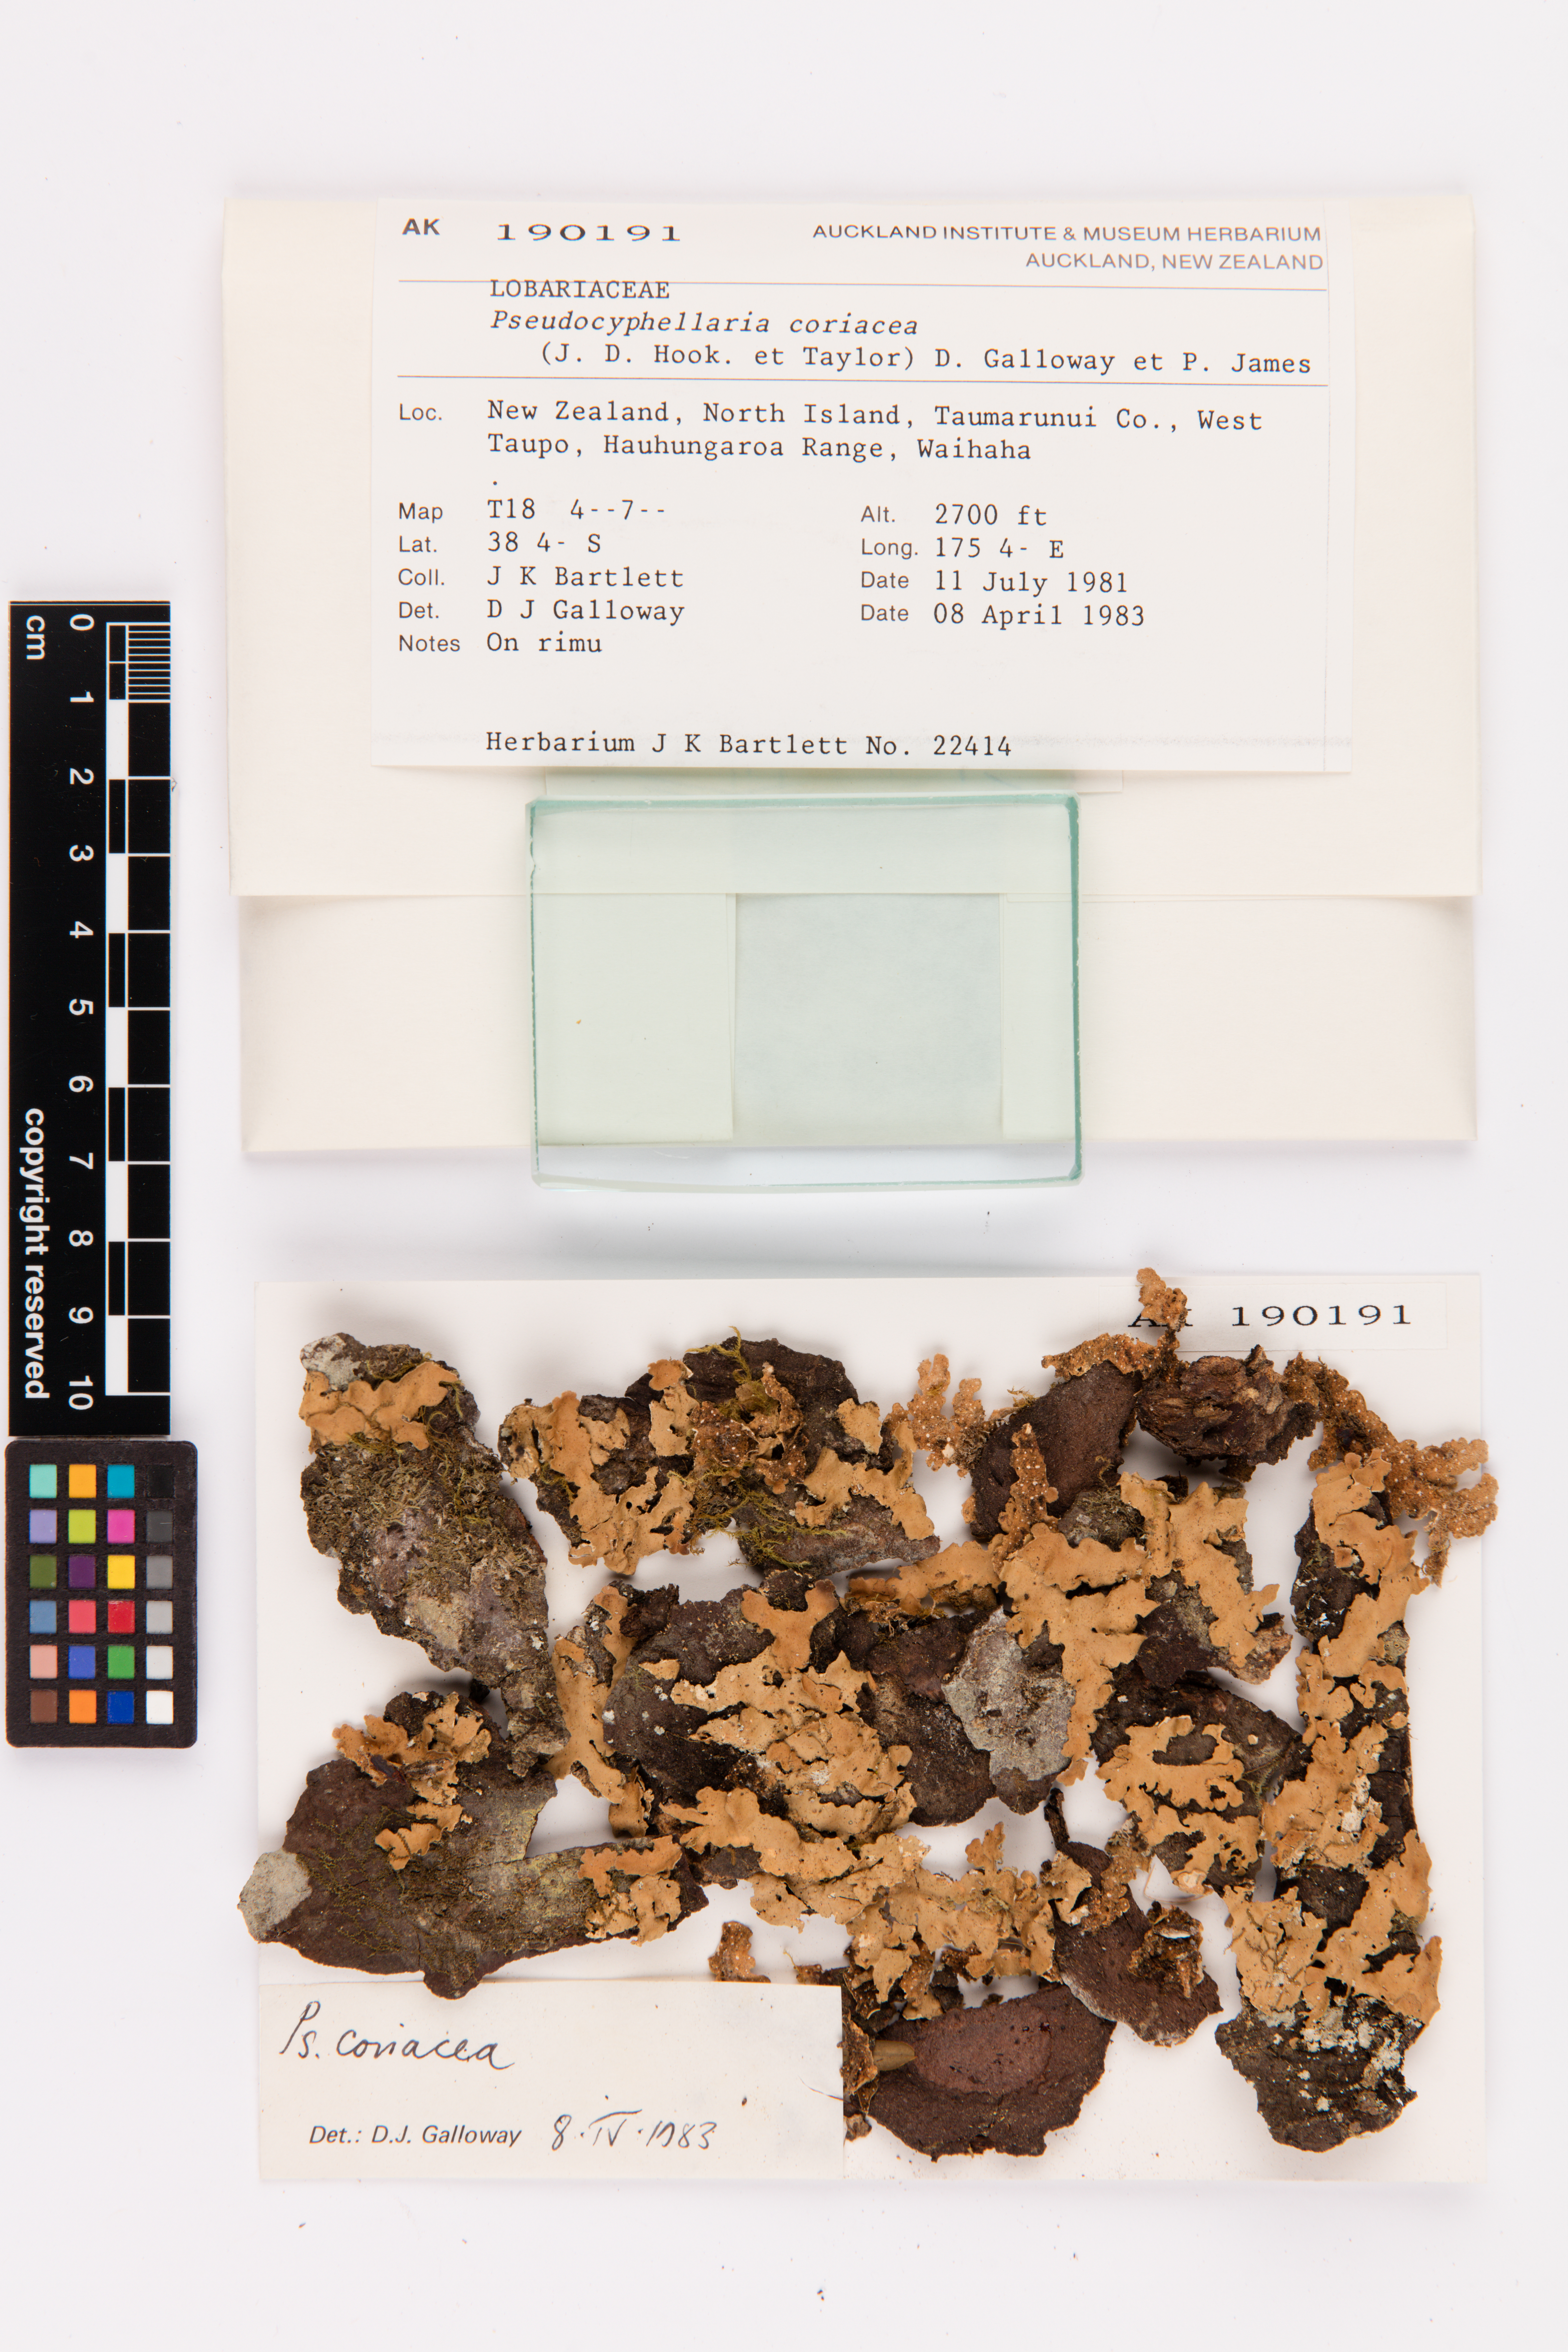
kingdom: Fungi
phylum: Ascomycota
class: Lecanoromycetes
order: Peltigerales
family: Lobariaceae
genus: Pseudocyphellaria
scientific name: Pseudocyphellaria coriacea
